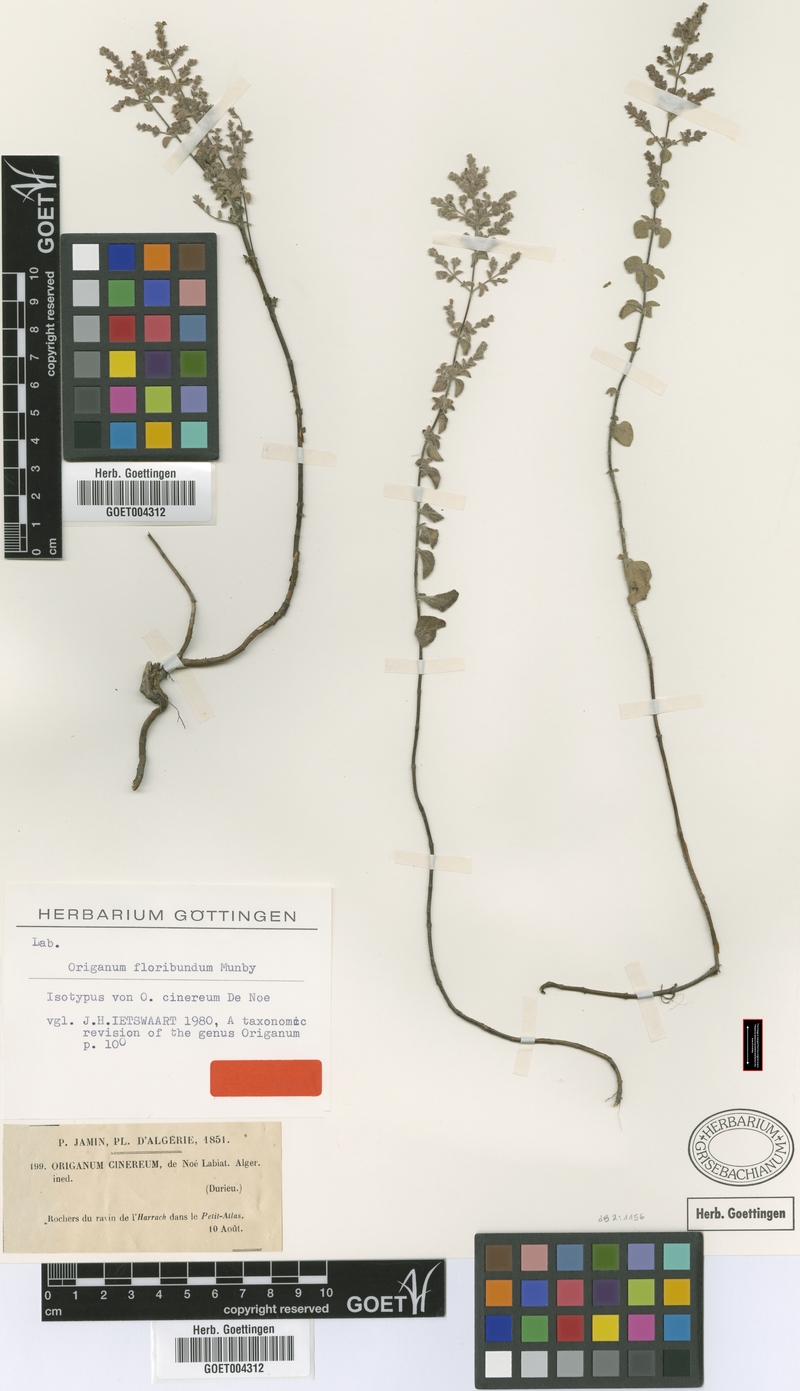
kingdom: Plantae
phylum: Tracheophyta
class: Magnoliopsida
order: Lamiales
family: Lamiaceae
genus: Origanum
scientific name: Origanum floribundum
